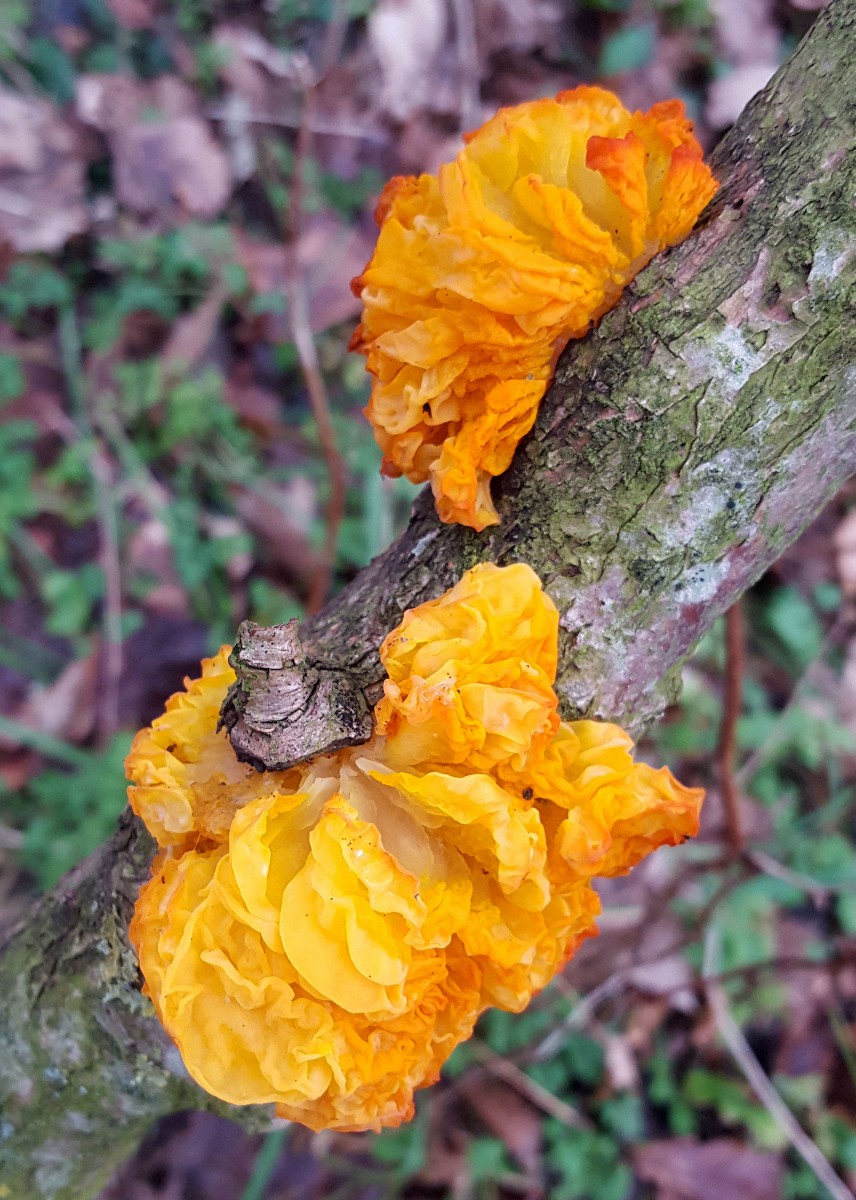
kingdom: Fungi
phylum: Basidiomycota
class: Tremellomycetes
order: Tremellales
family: Tremellaceae
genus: Tremella
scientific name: Tremella mesenterica
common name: gul bævresvamp
